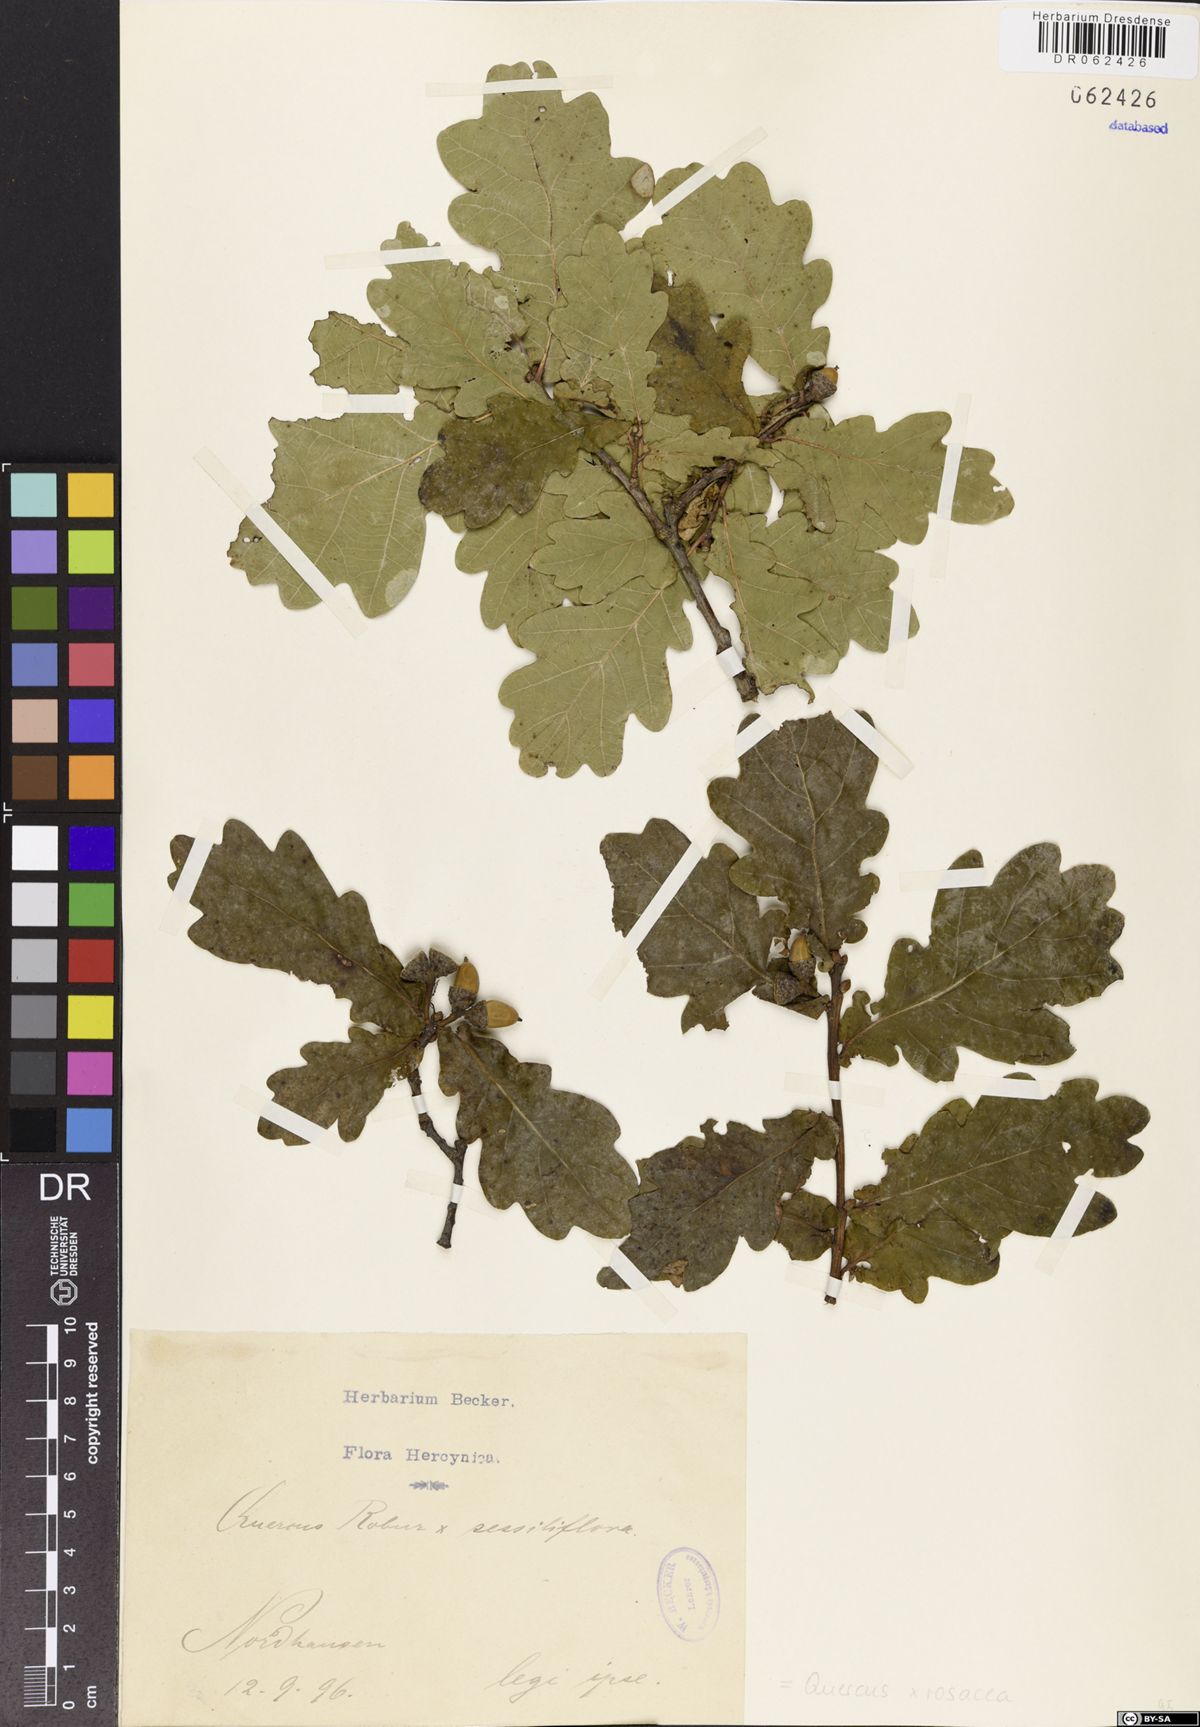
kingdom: Plantae
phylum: Tracheophyta
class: Magnoliopsida
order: Fagales
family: Fagaceae
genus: Quercus
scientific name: Quercus rosacea
